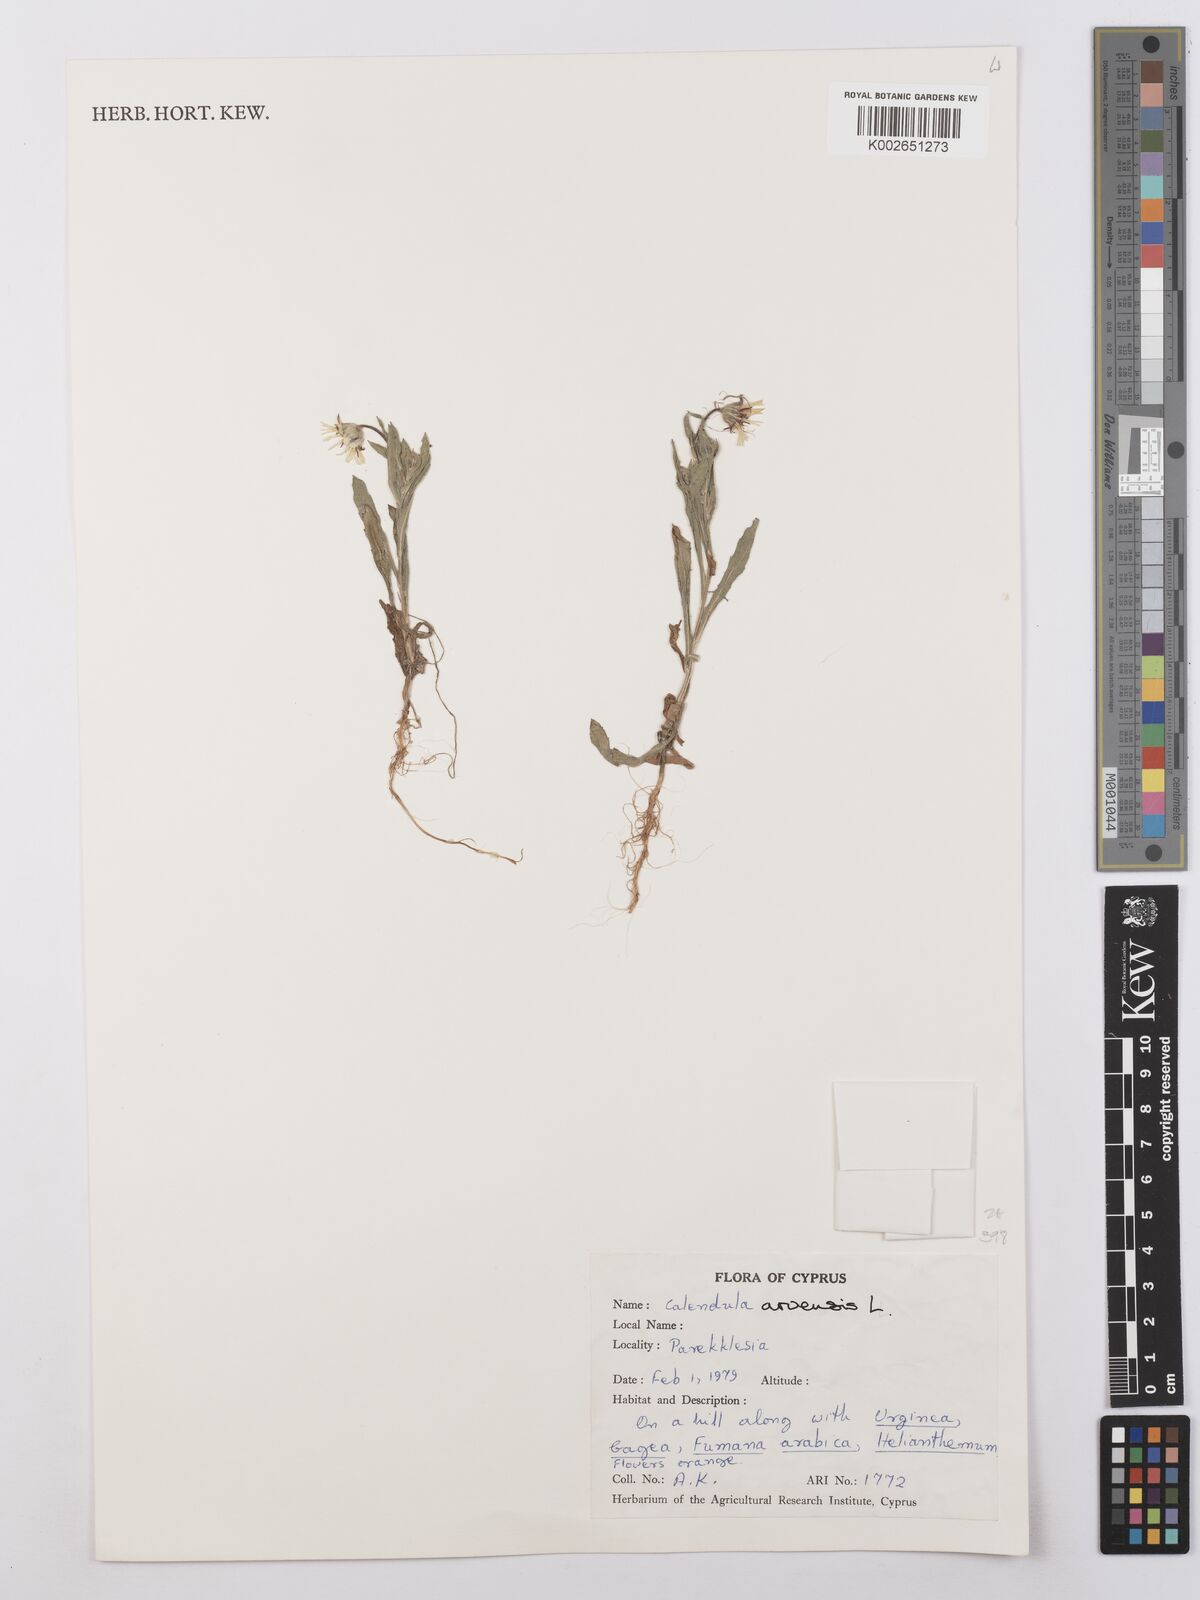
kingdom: Plantae
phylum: Tracheophyta
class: Magnoliopsida
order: Asterales
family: Asteraceae
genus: Calendula
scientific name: Calendula arvensis
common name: Field marigold
